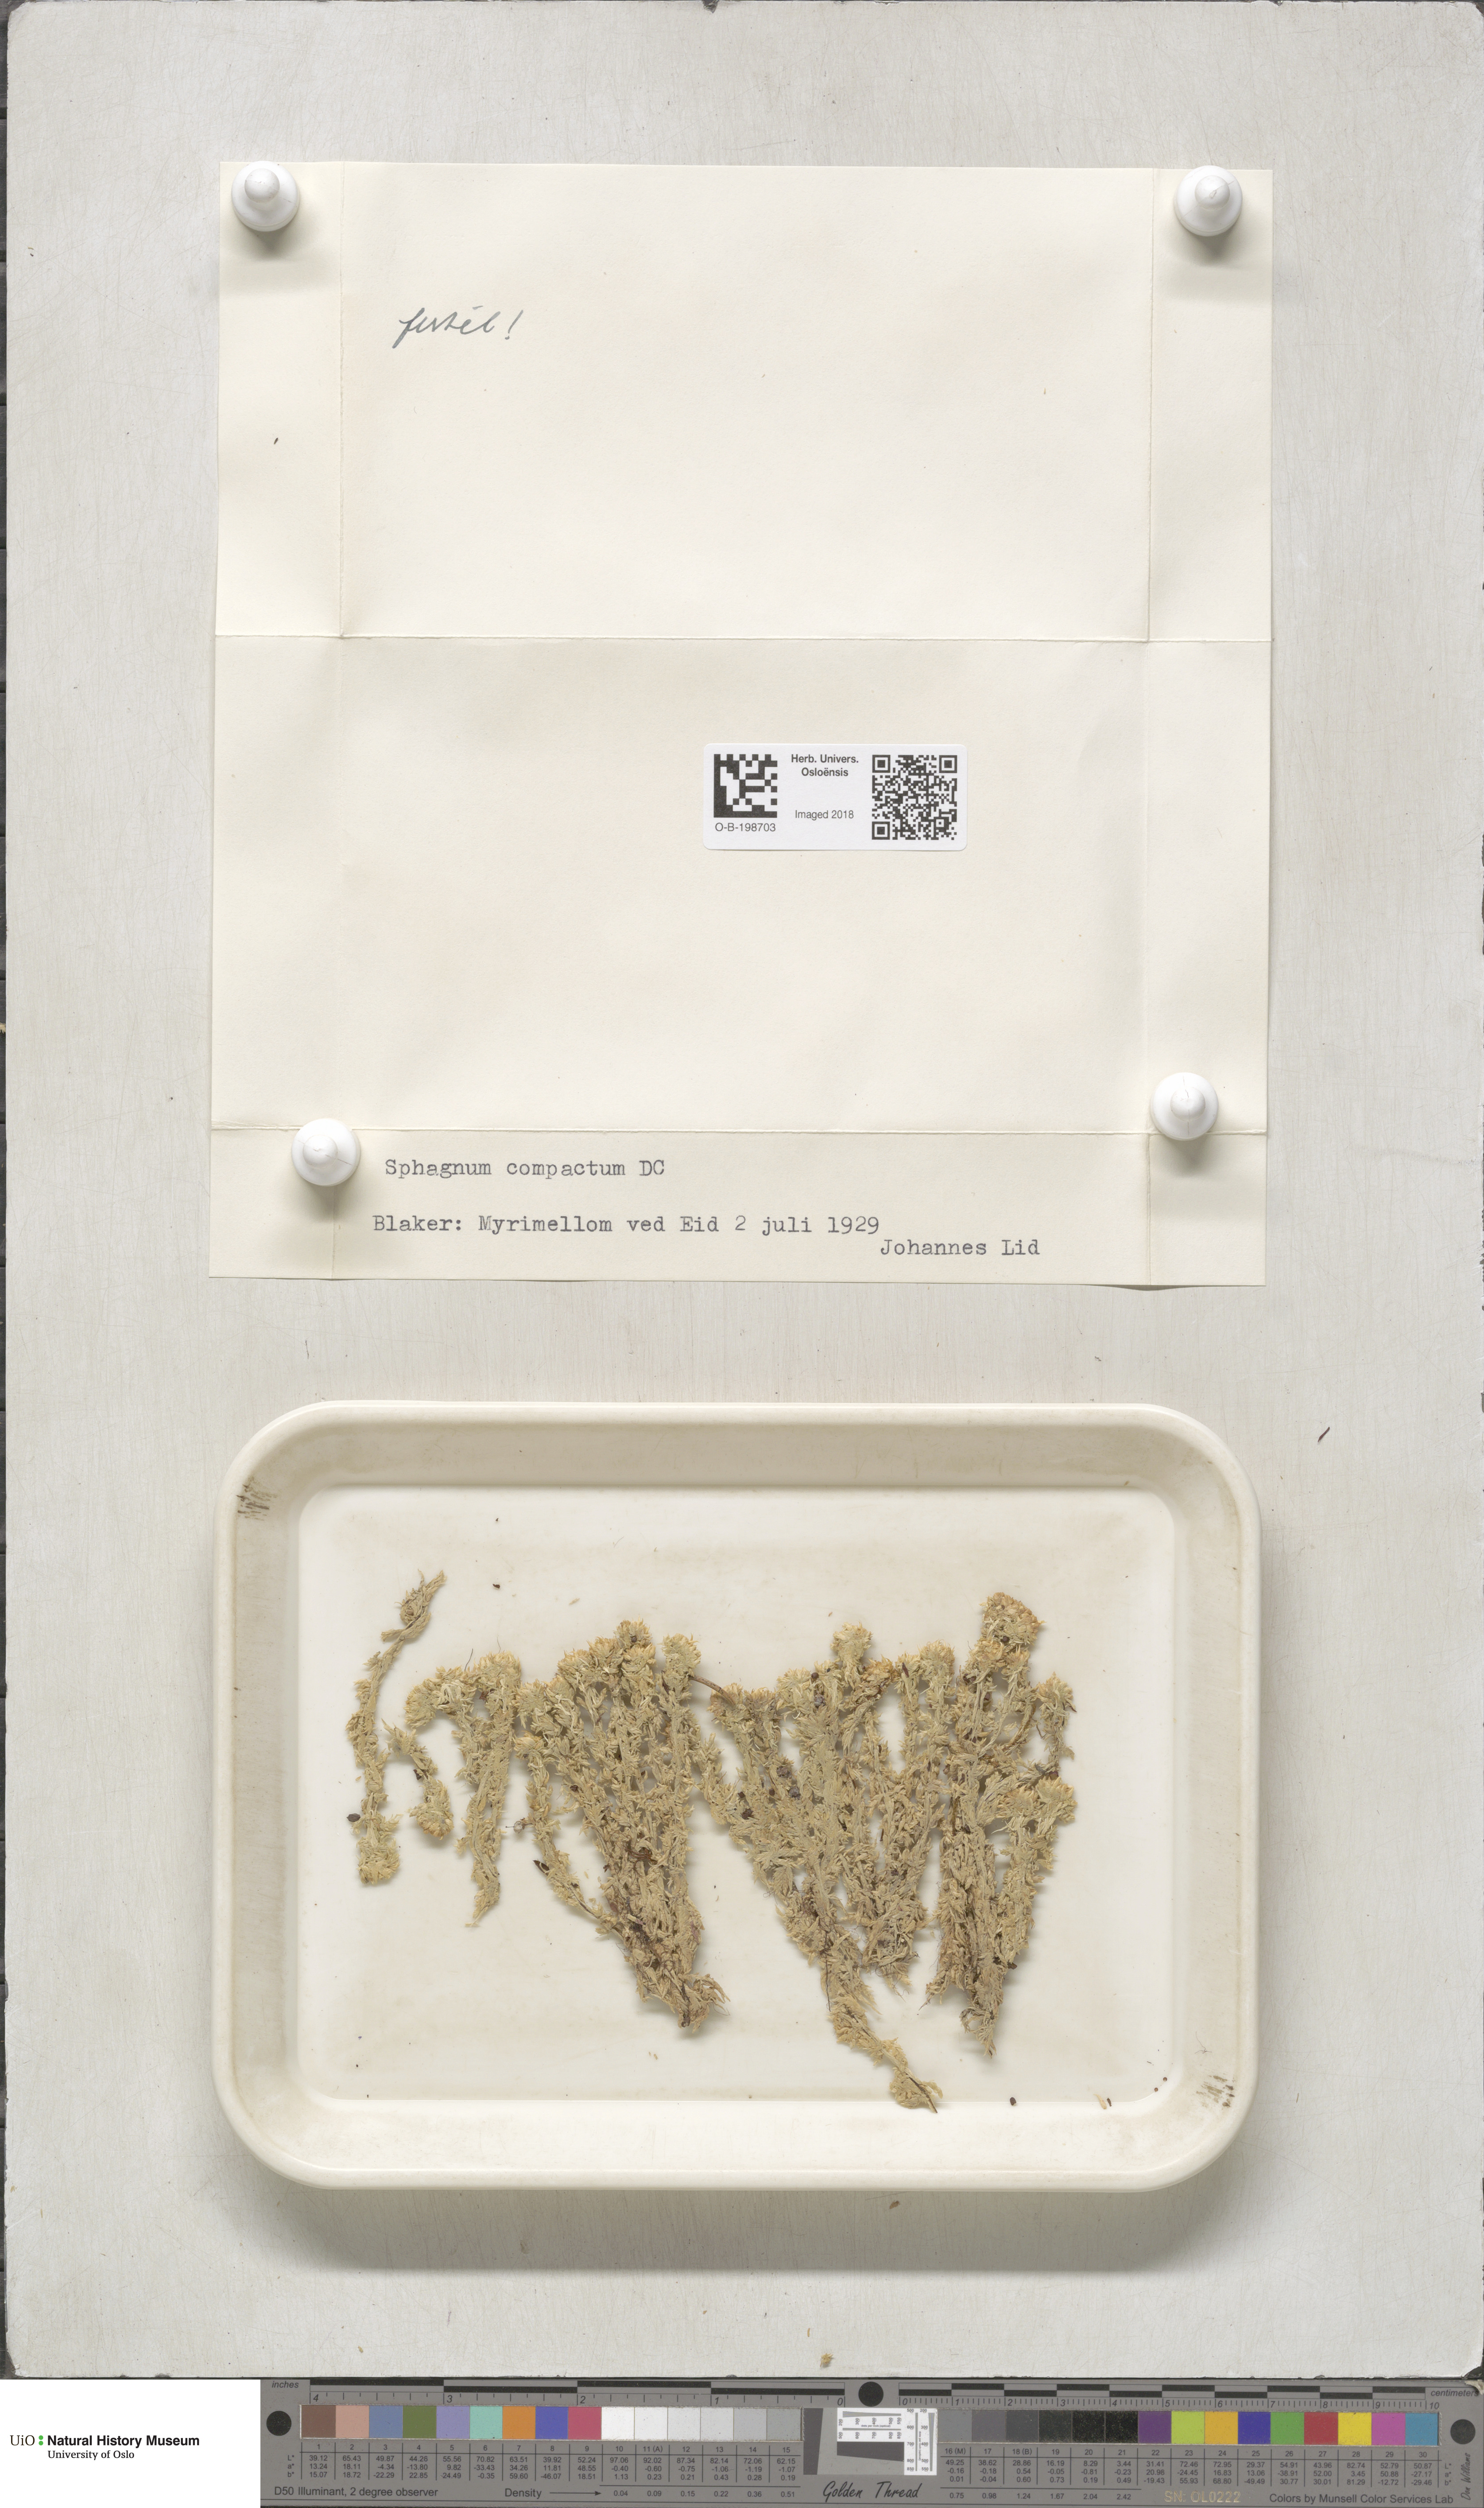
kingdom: Plantae
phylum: Bryophyta
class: Sphagnopsida
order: Sphagnales
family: Sphagnaceae
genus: Sphagnum
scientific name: Sphagnum compactum
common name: Compact peat moss
